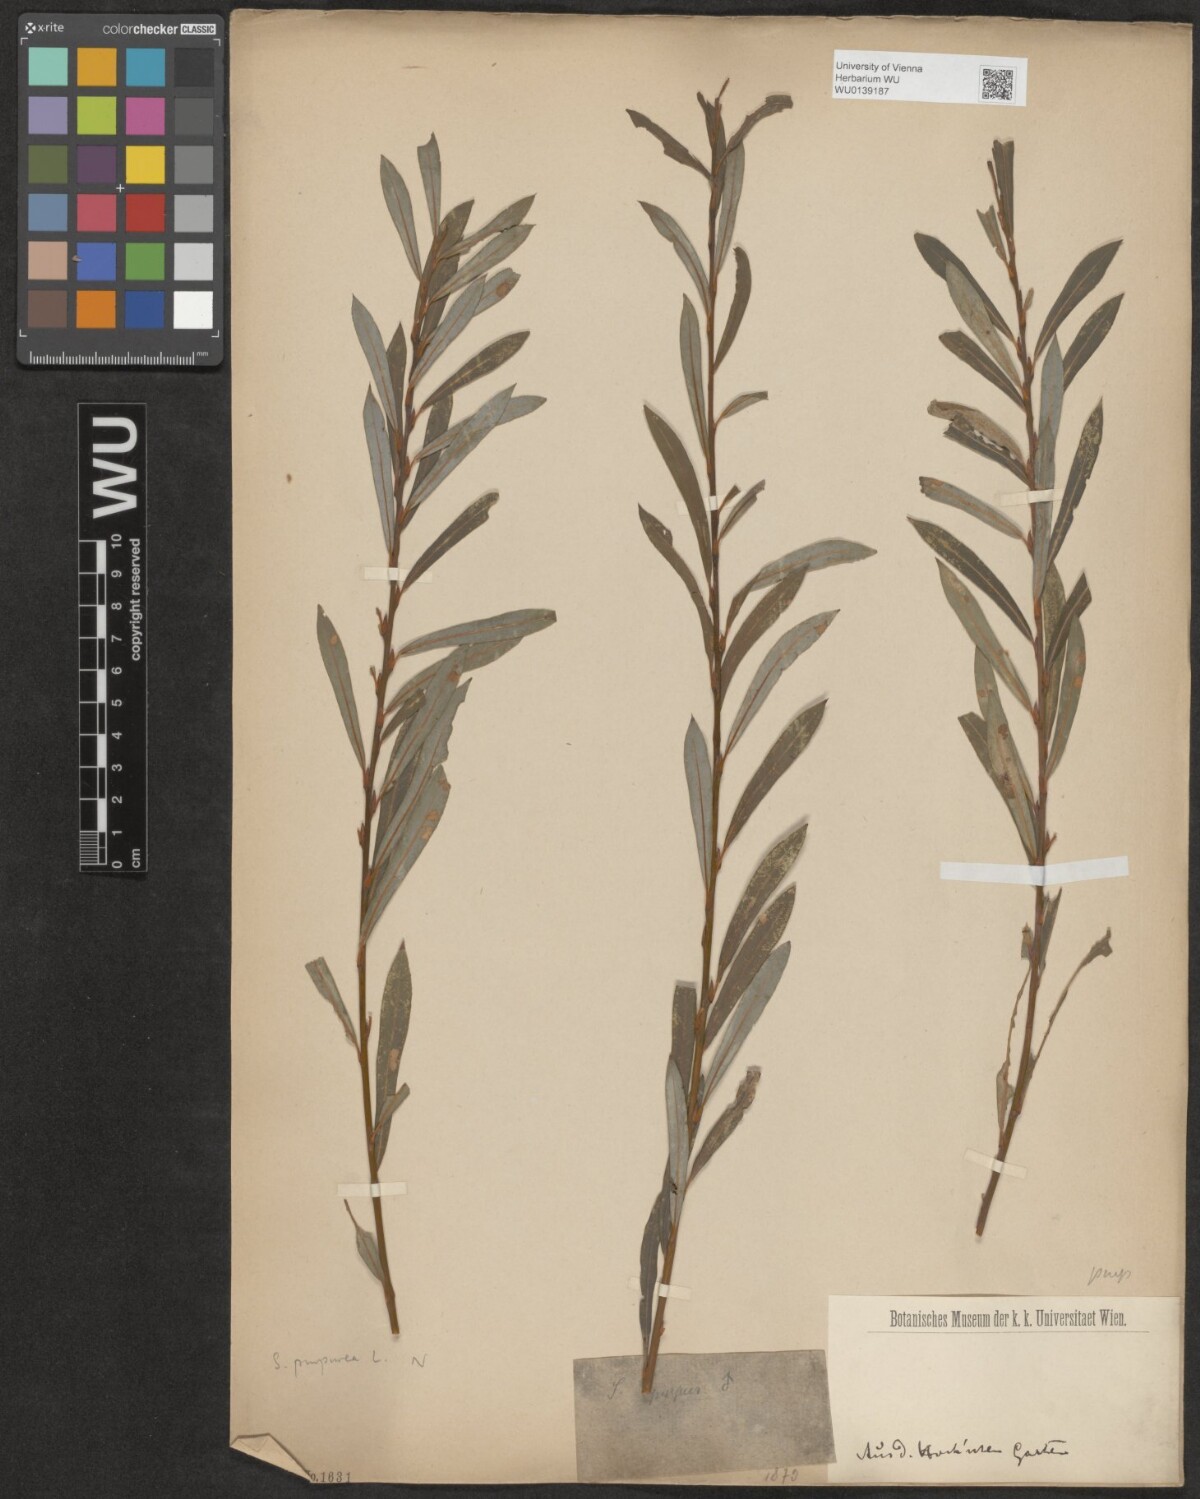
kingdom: Plantae
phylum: Tracheophyta
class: Magnoliopsida
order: Malpighiales
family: Salicaceae
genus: Salix
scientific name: Salix purpurea
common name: Purple willow
